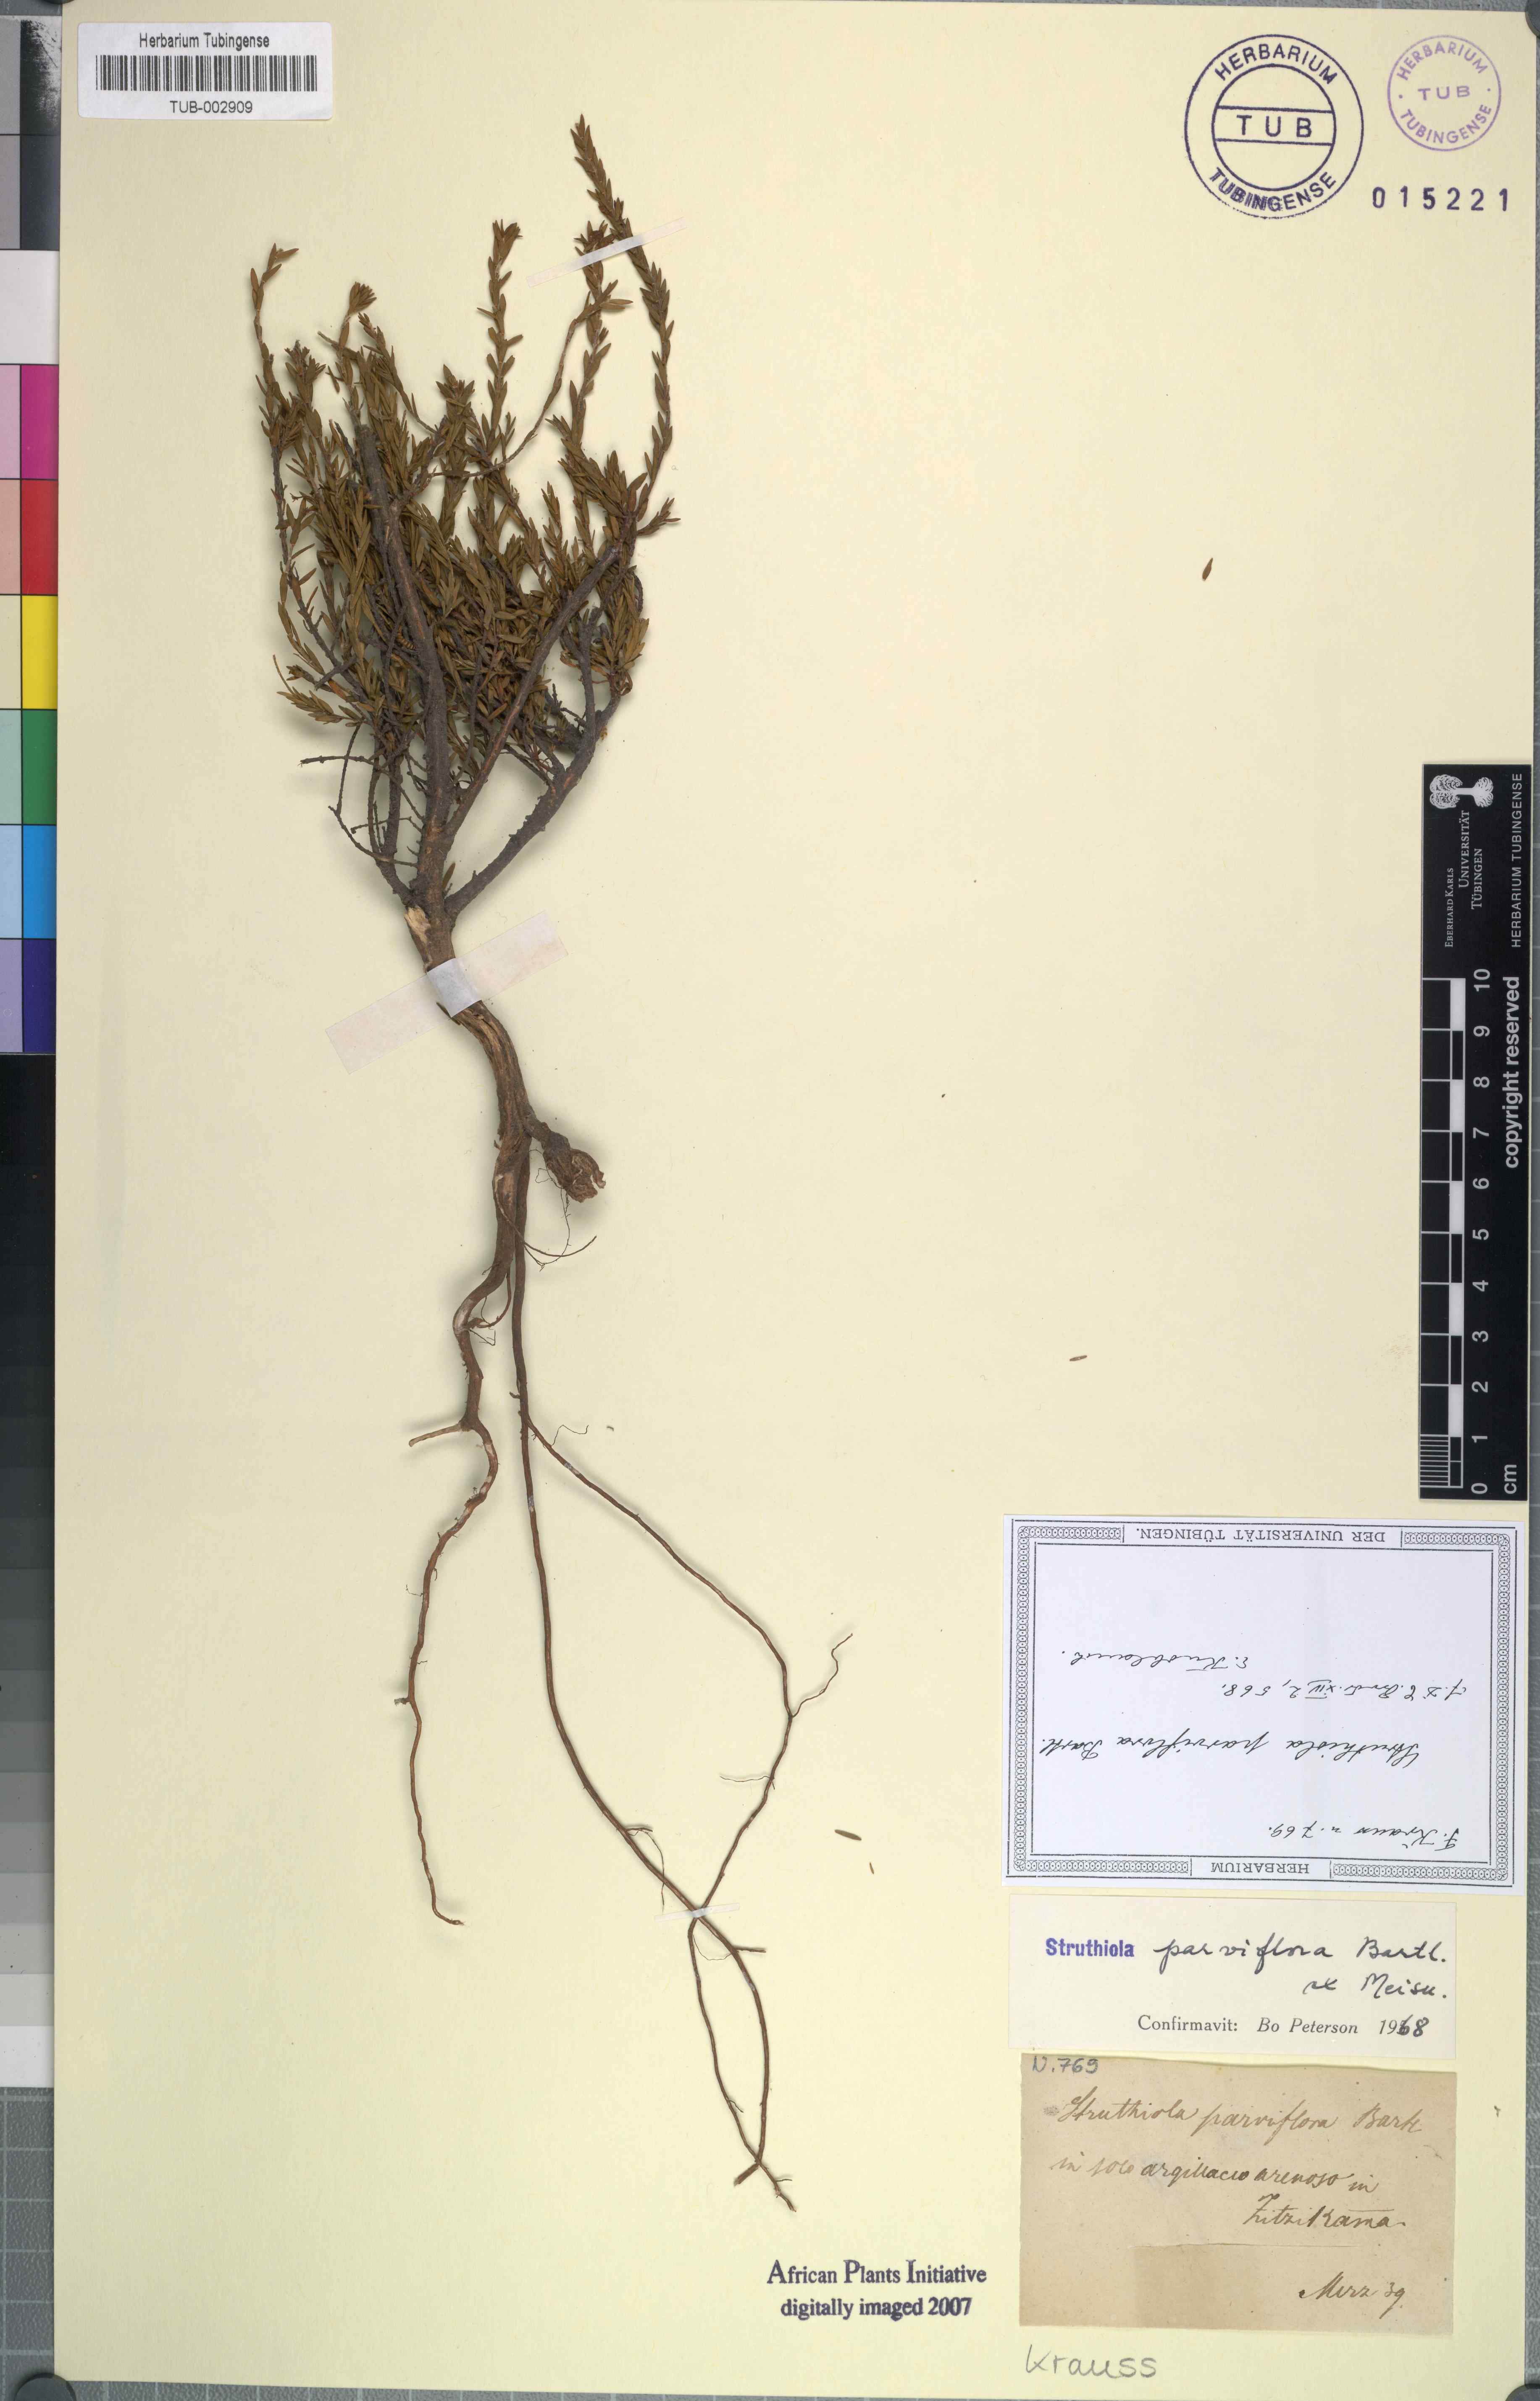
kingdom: Plantae
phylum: Tracheophyta
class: Magnoliopsida
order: Malvales
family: Thymelaeaceae
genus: Struthiola
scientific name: Struthiola parviflora
